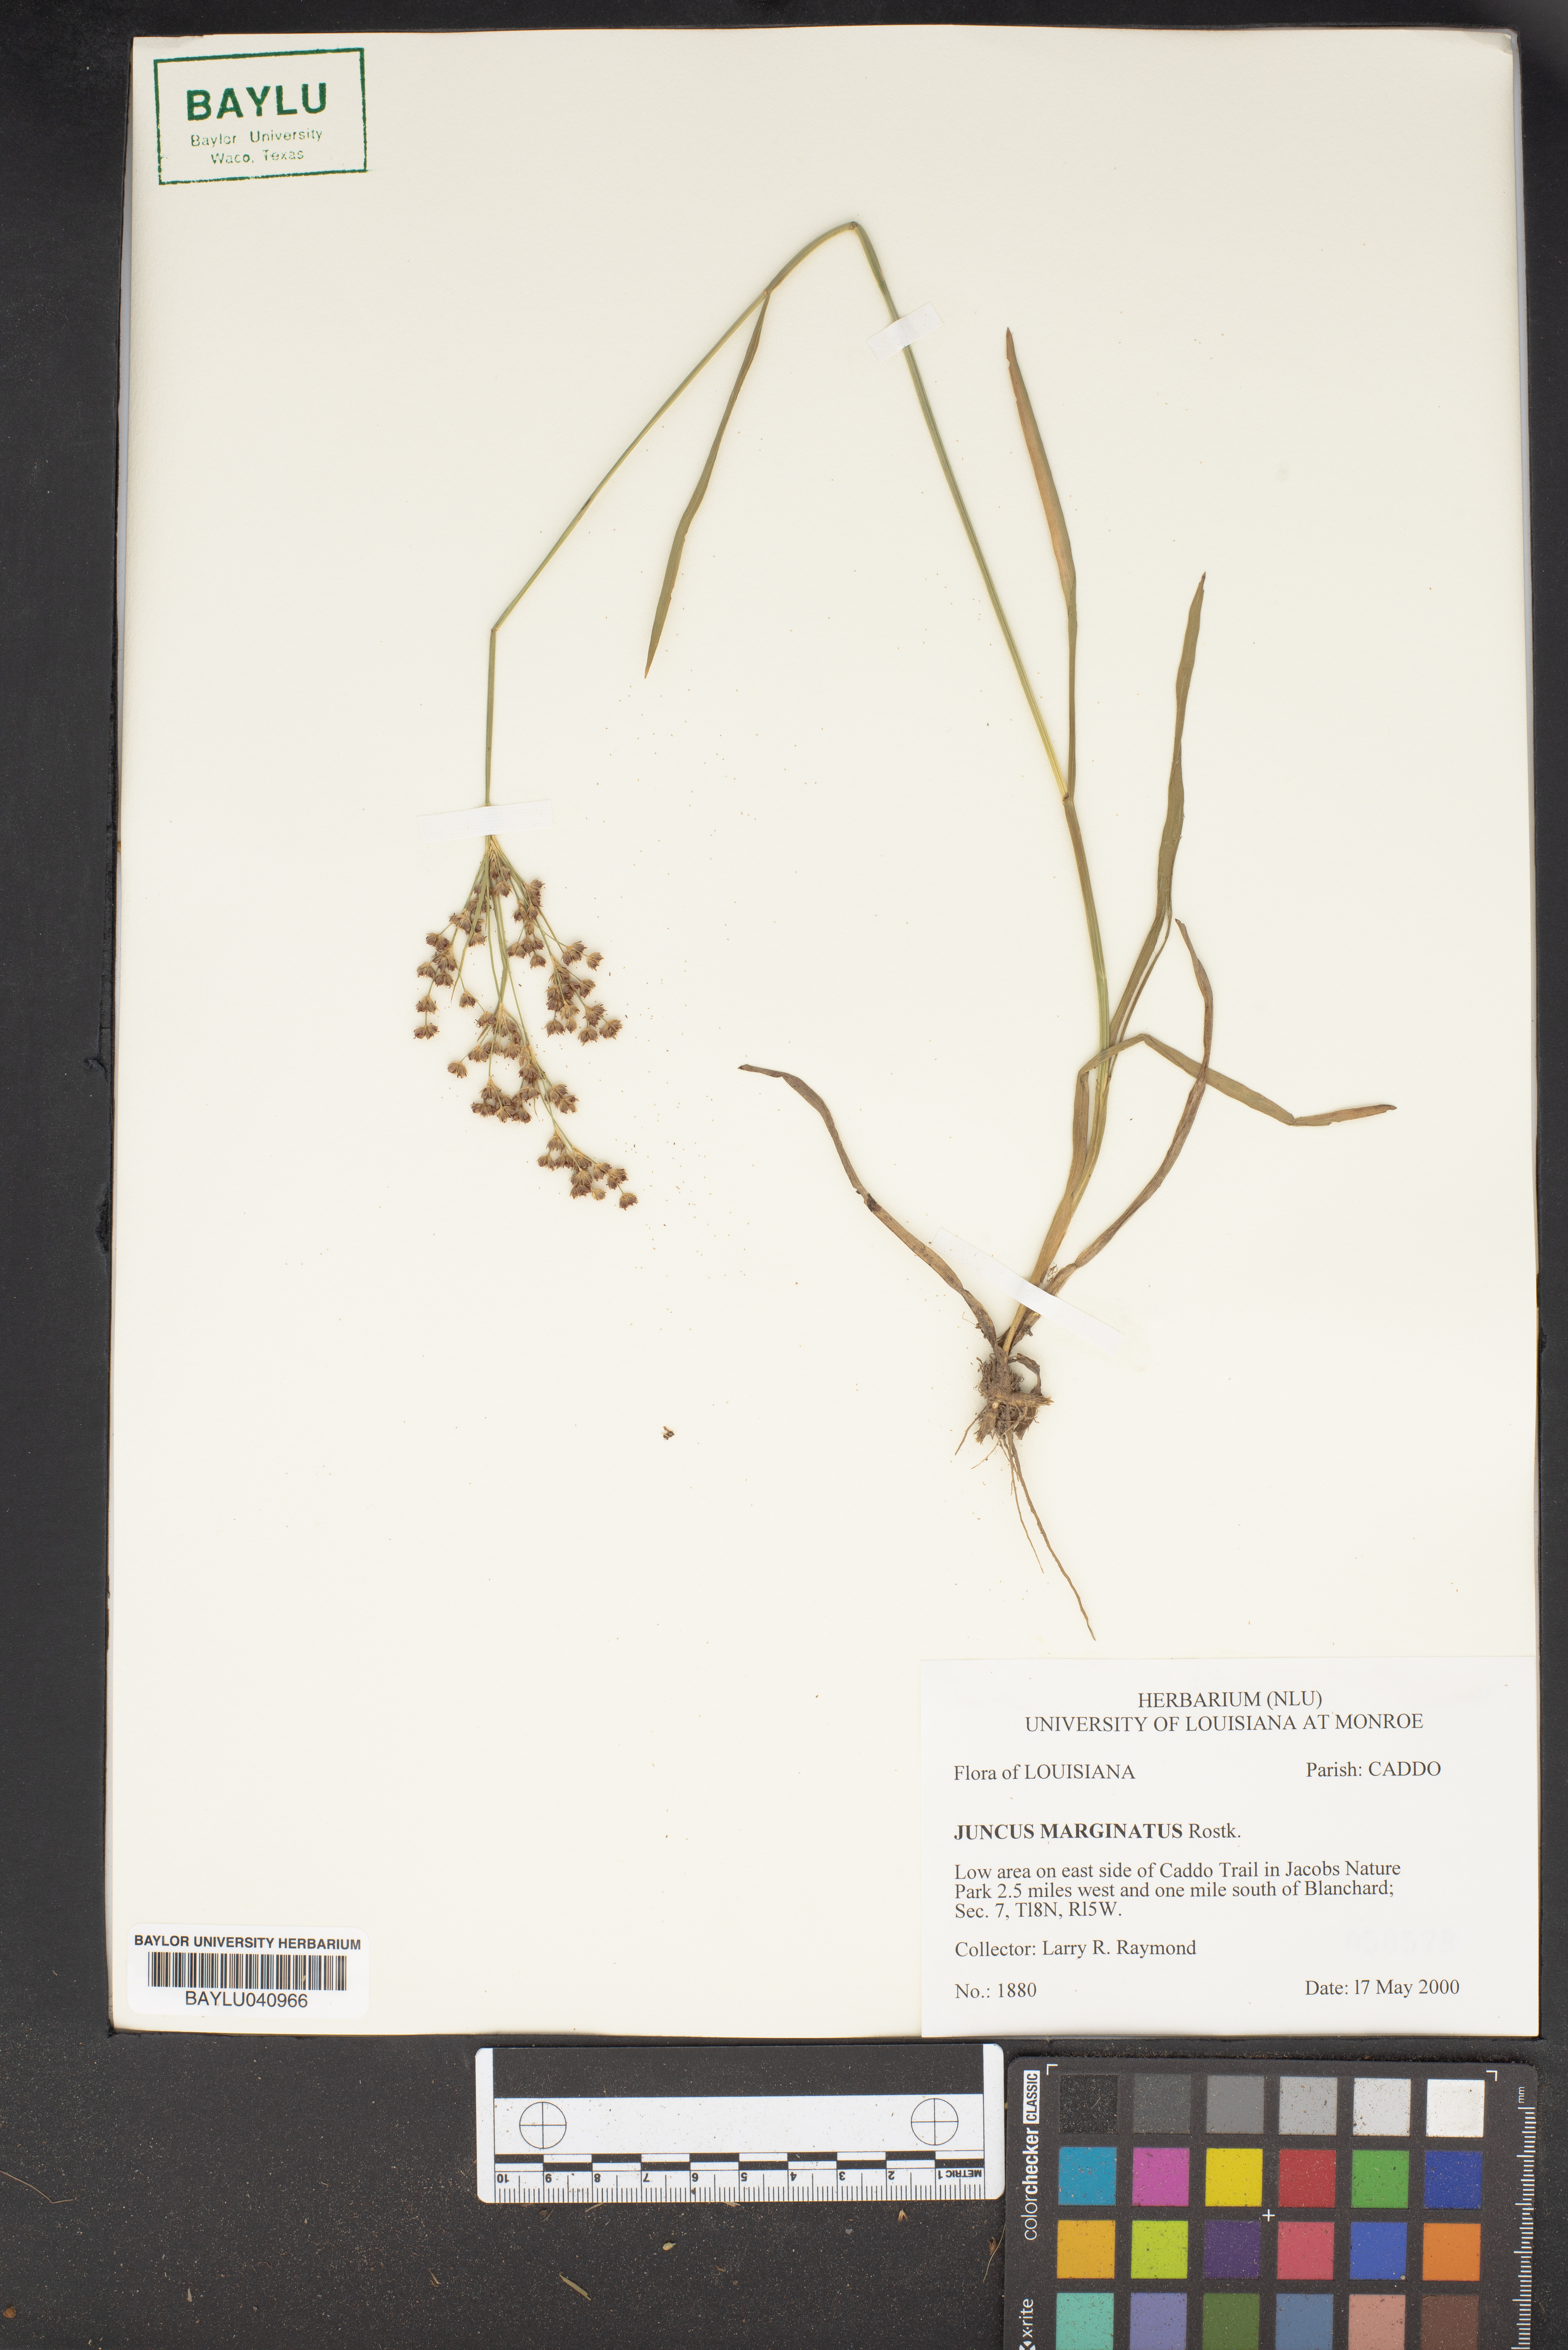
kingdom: Plantae
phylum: Tracheophyta
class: Liliopsida
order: Poales
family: Juncaceae
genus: Juncus
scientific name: Juncus marginatus
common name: Grass-leaf rush
